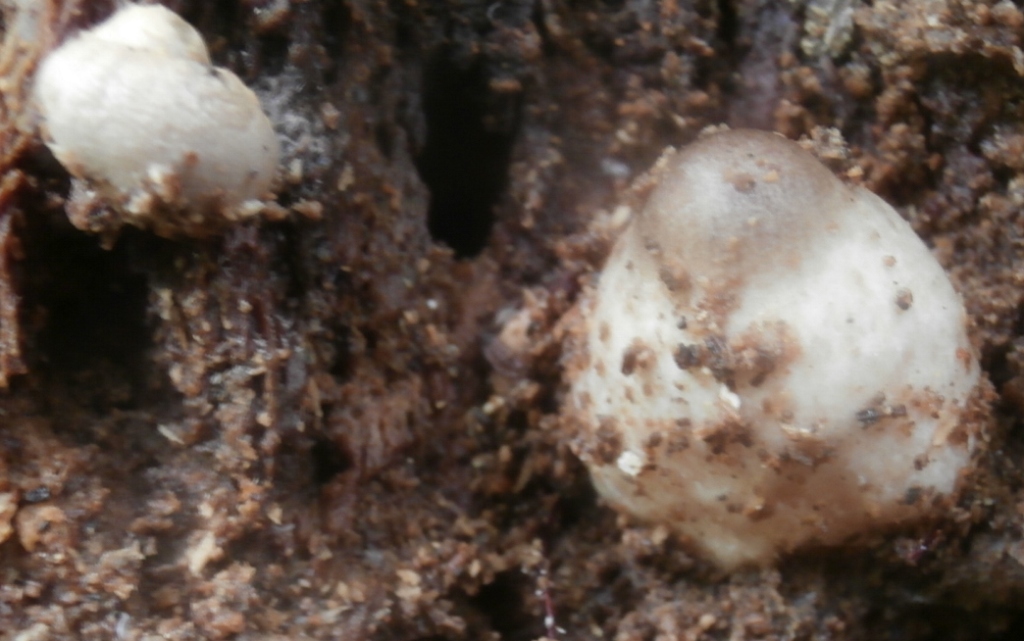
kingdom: Fungi
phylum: Basidiomycota
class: Agaricomycetes
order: Agaricales
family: Pluteaceae
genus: Volvariella
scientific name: Volvariella bombycina
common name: silkehåret posesvamp
